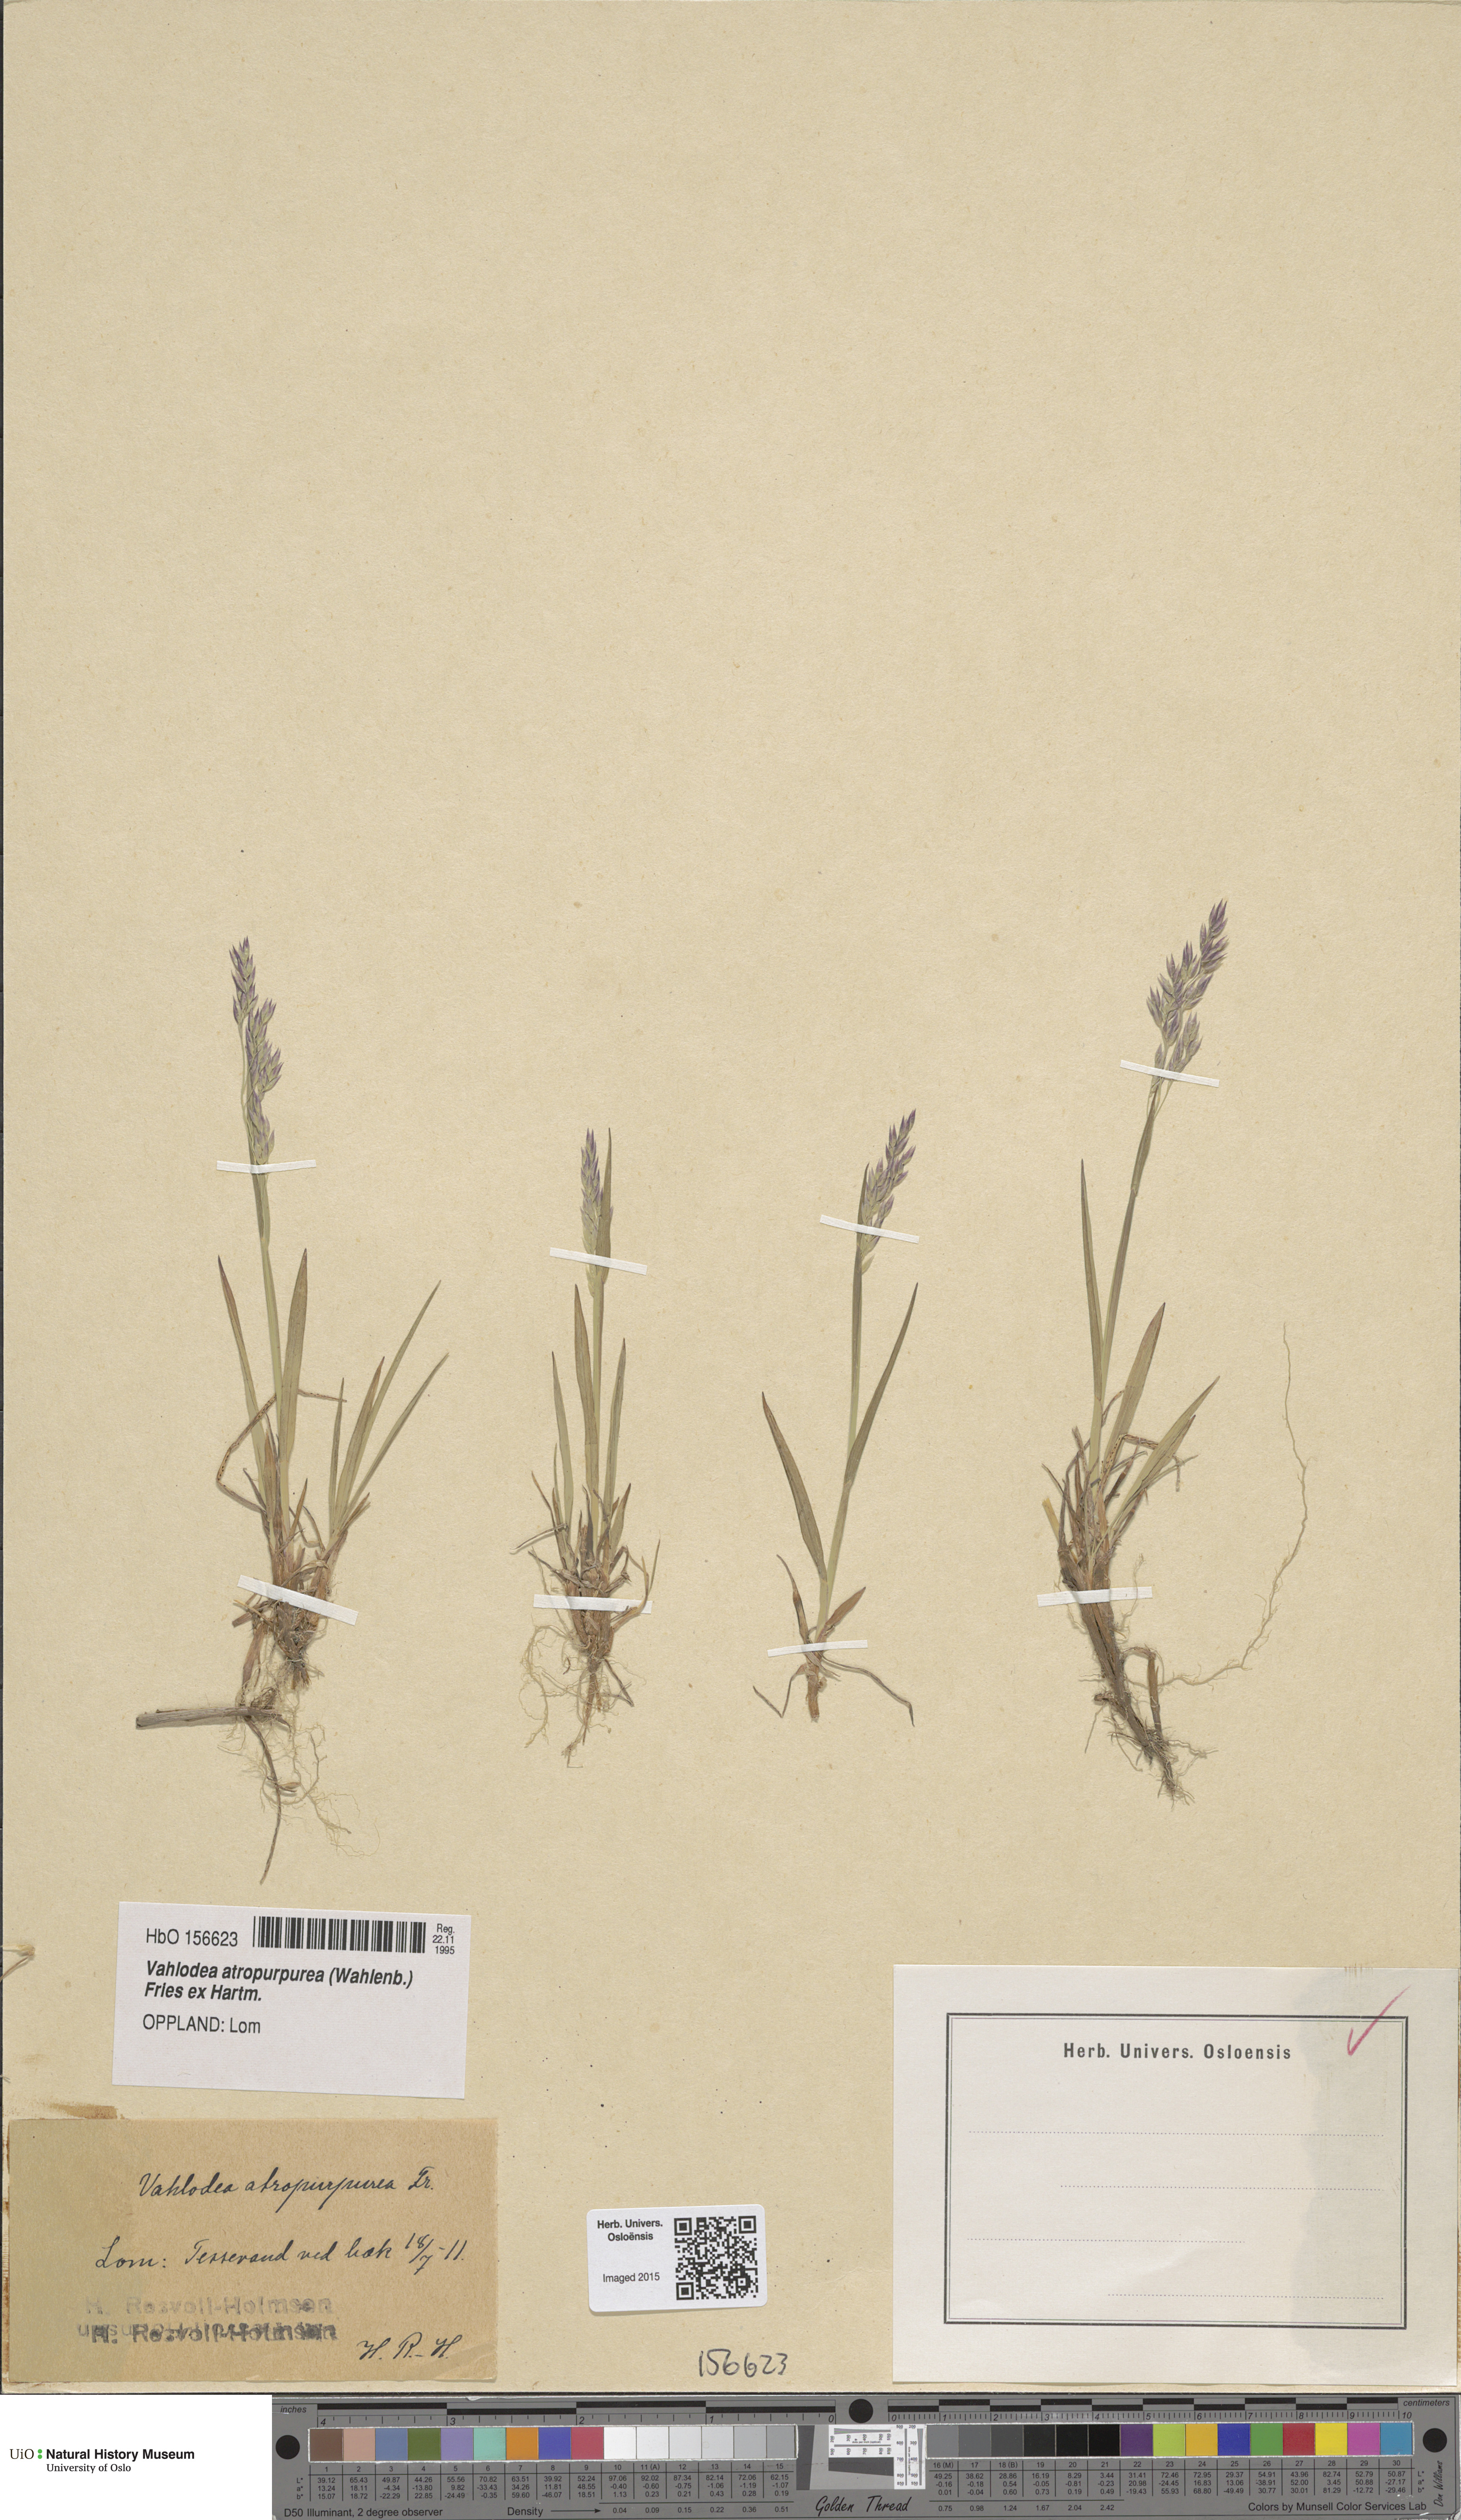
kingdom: Plantae
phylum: Tracheophyta
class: Liliopsida
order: Poales
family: Poaceae
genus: Vahlodea
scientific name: Vahlodea atropurpurea
